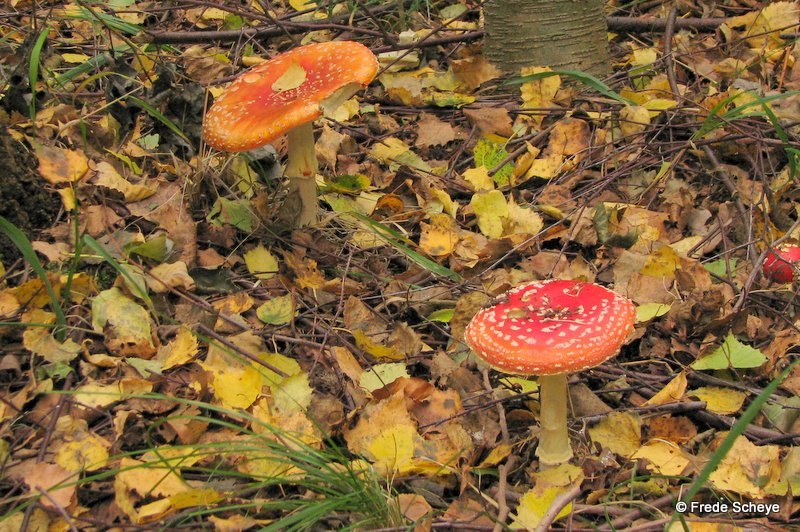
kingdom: Fungi
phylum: Basidiomycota
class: Agaricomycetes
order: Agaricales
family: Amanitaceae
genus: Amanita
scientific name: Amanita muscaria
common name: rød fluesvamp
